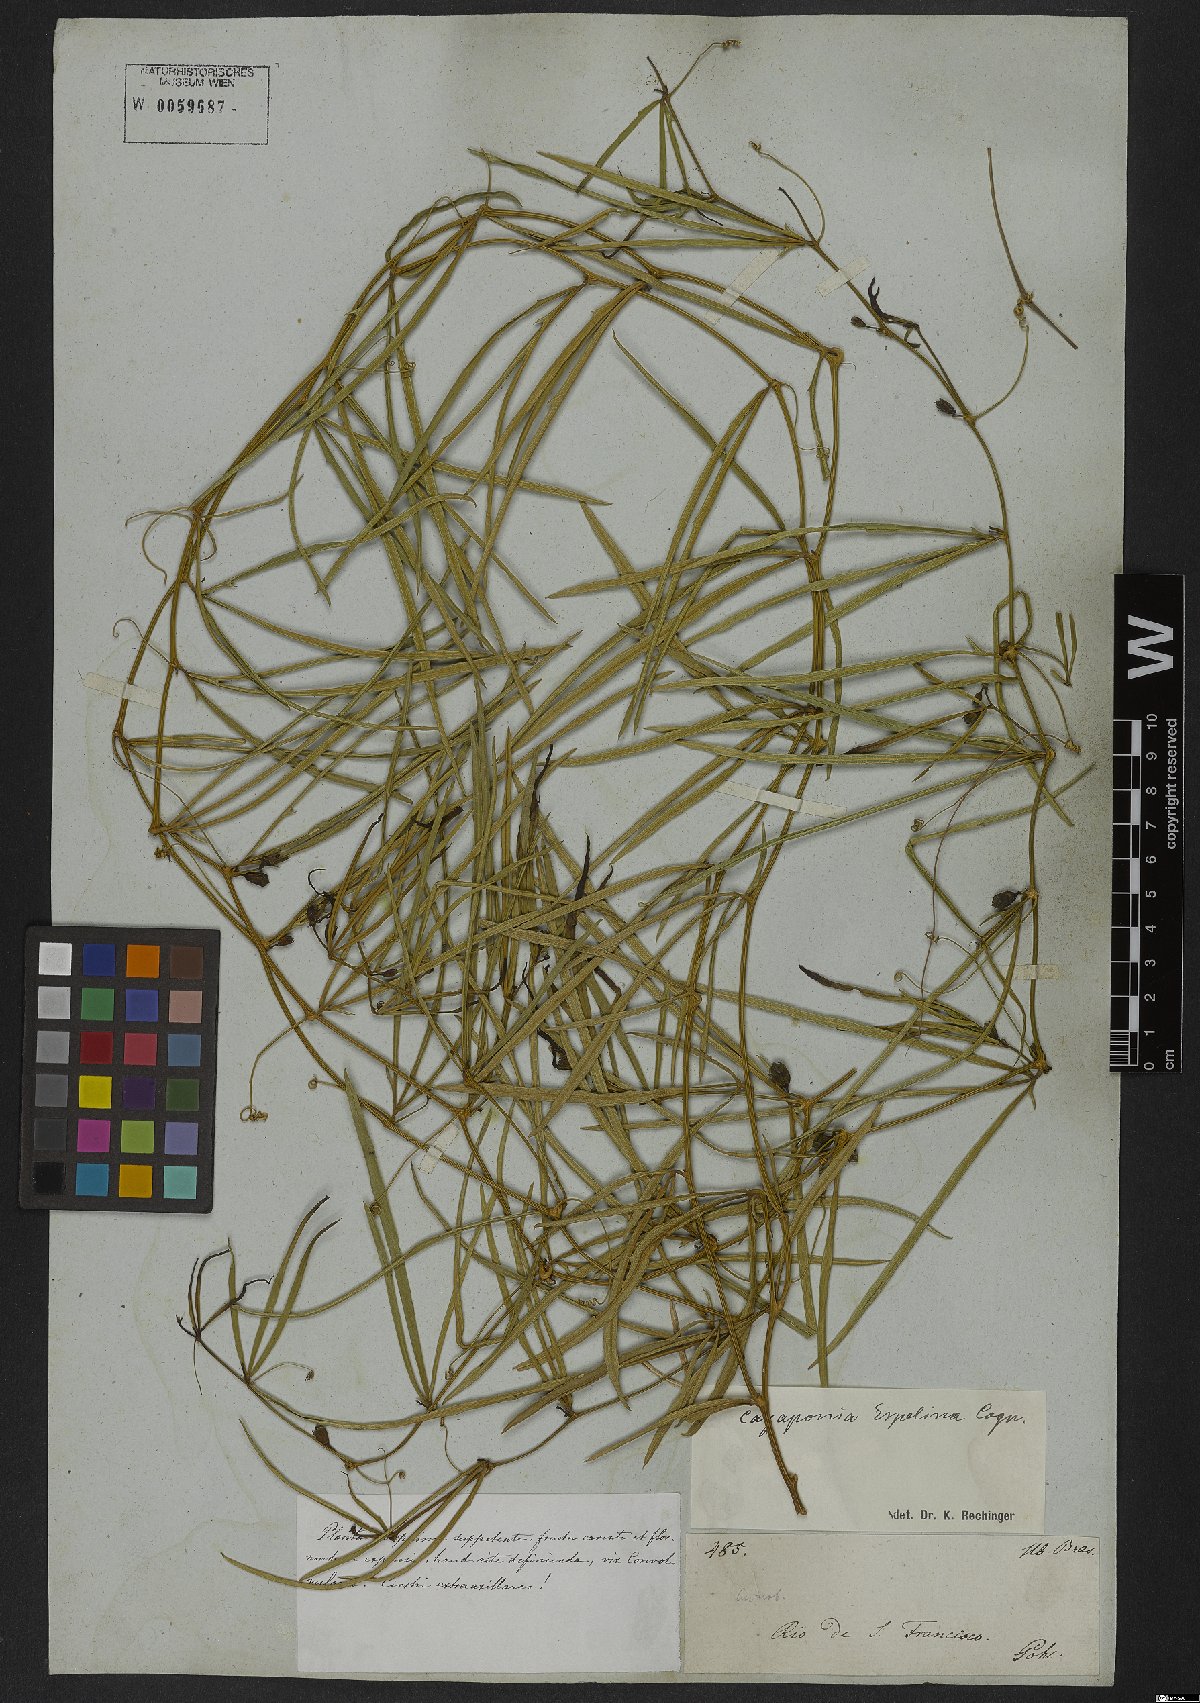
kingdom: Plantae
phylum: Tracheophyta
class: Magnoliopsida
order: Cucurbitales
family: Cucurbitaceae
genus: Cayaponia
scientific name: Cayaponia espelina
